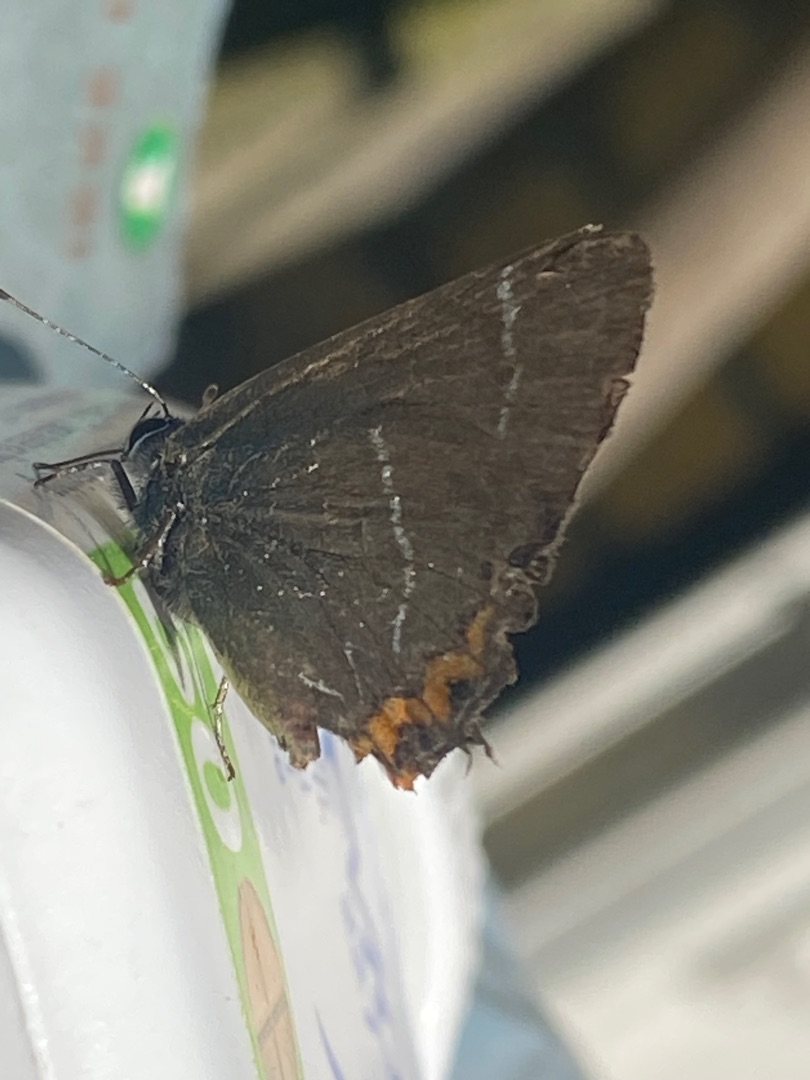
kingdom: Animalia
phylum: Arthropoda
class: Insecta
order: Lepidoptera
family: Lycaenidae
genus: Satyrium
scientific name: Satyrium w-album
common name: Det hvide W
